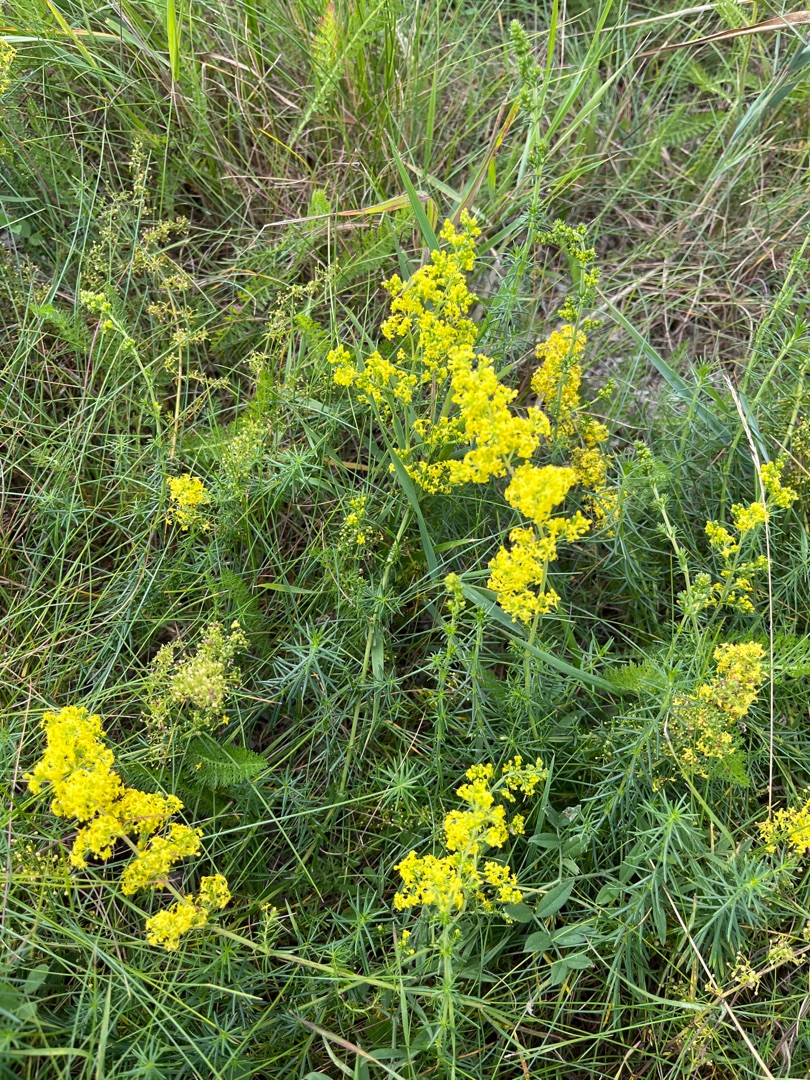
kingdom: Plantae
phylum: Tracheophyta
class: Magnoliopsida
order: Gentianales
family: Rubiaceae
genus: Galium
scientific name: Galium verum
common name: Gul snerre
